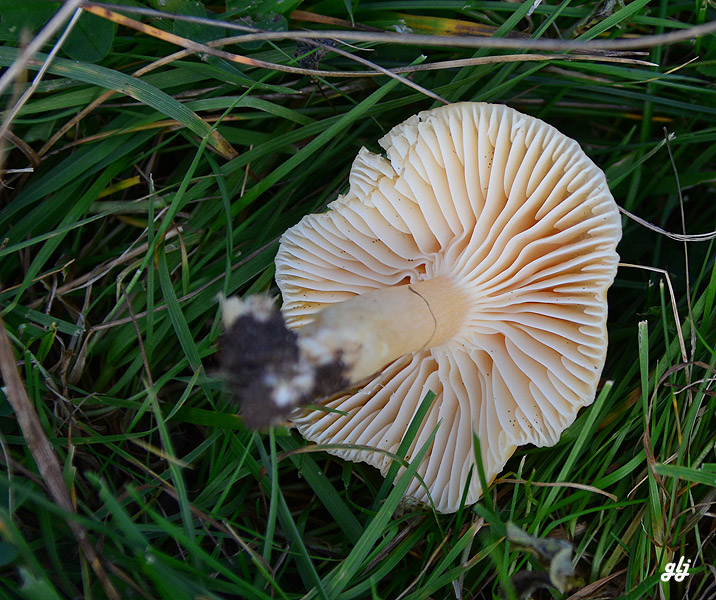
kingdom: Fungi
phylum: Basidiomycota
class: Agaricomycetes
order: Agaricales
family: Hygrophoraceae
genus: Cuphophyllus
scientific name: Cuphophyllus pratensis
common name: eng-vokshat
